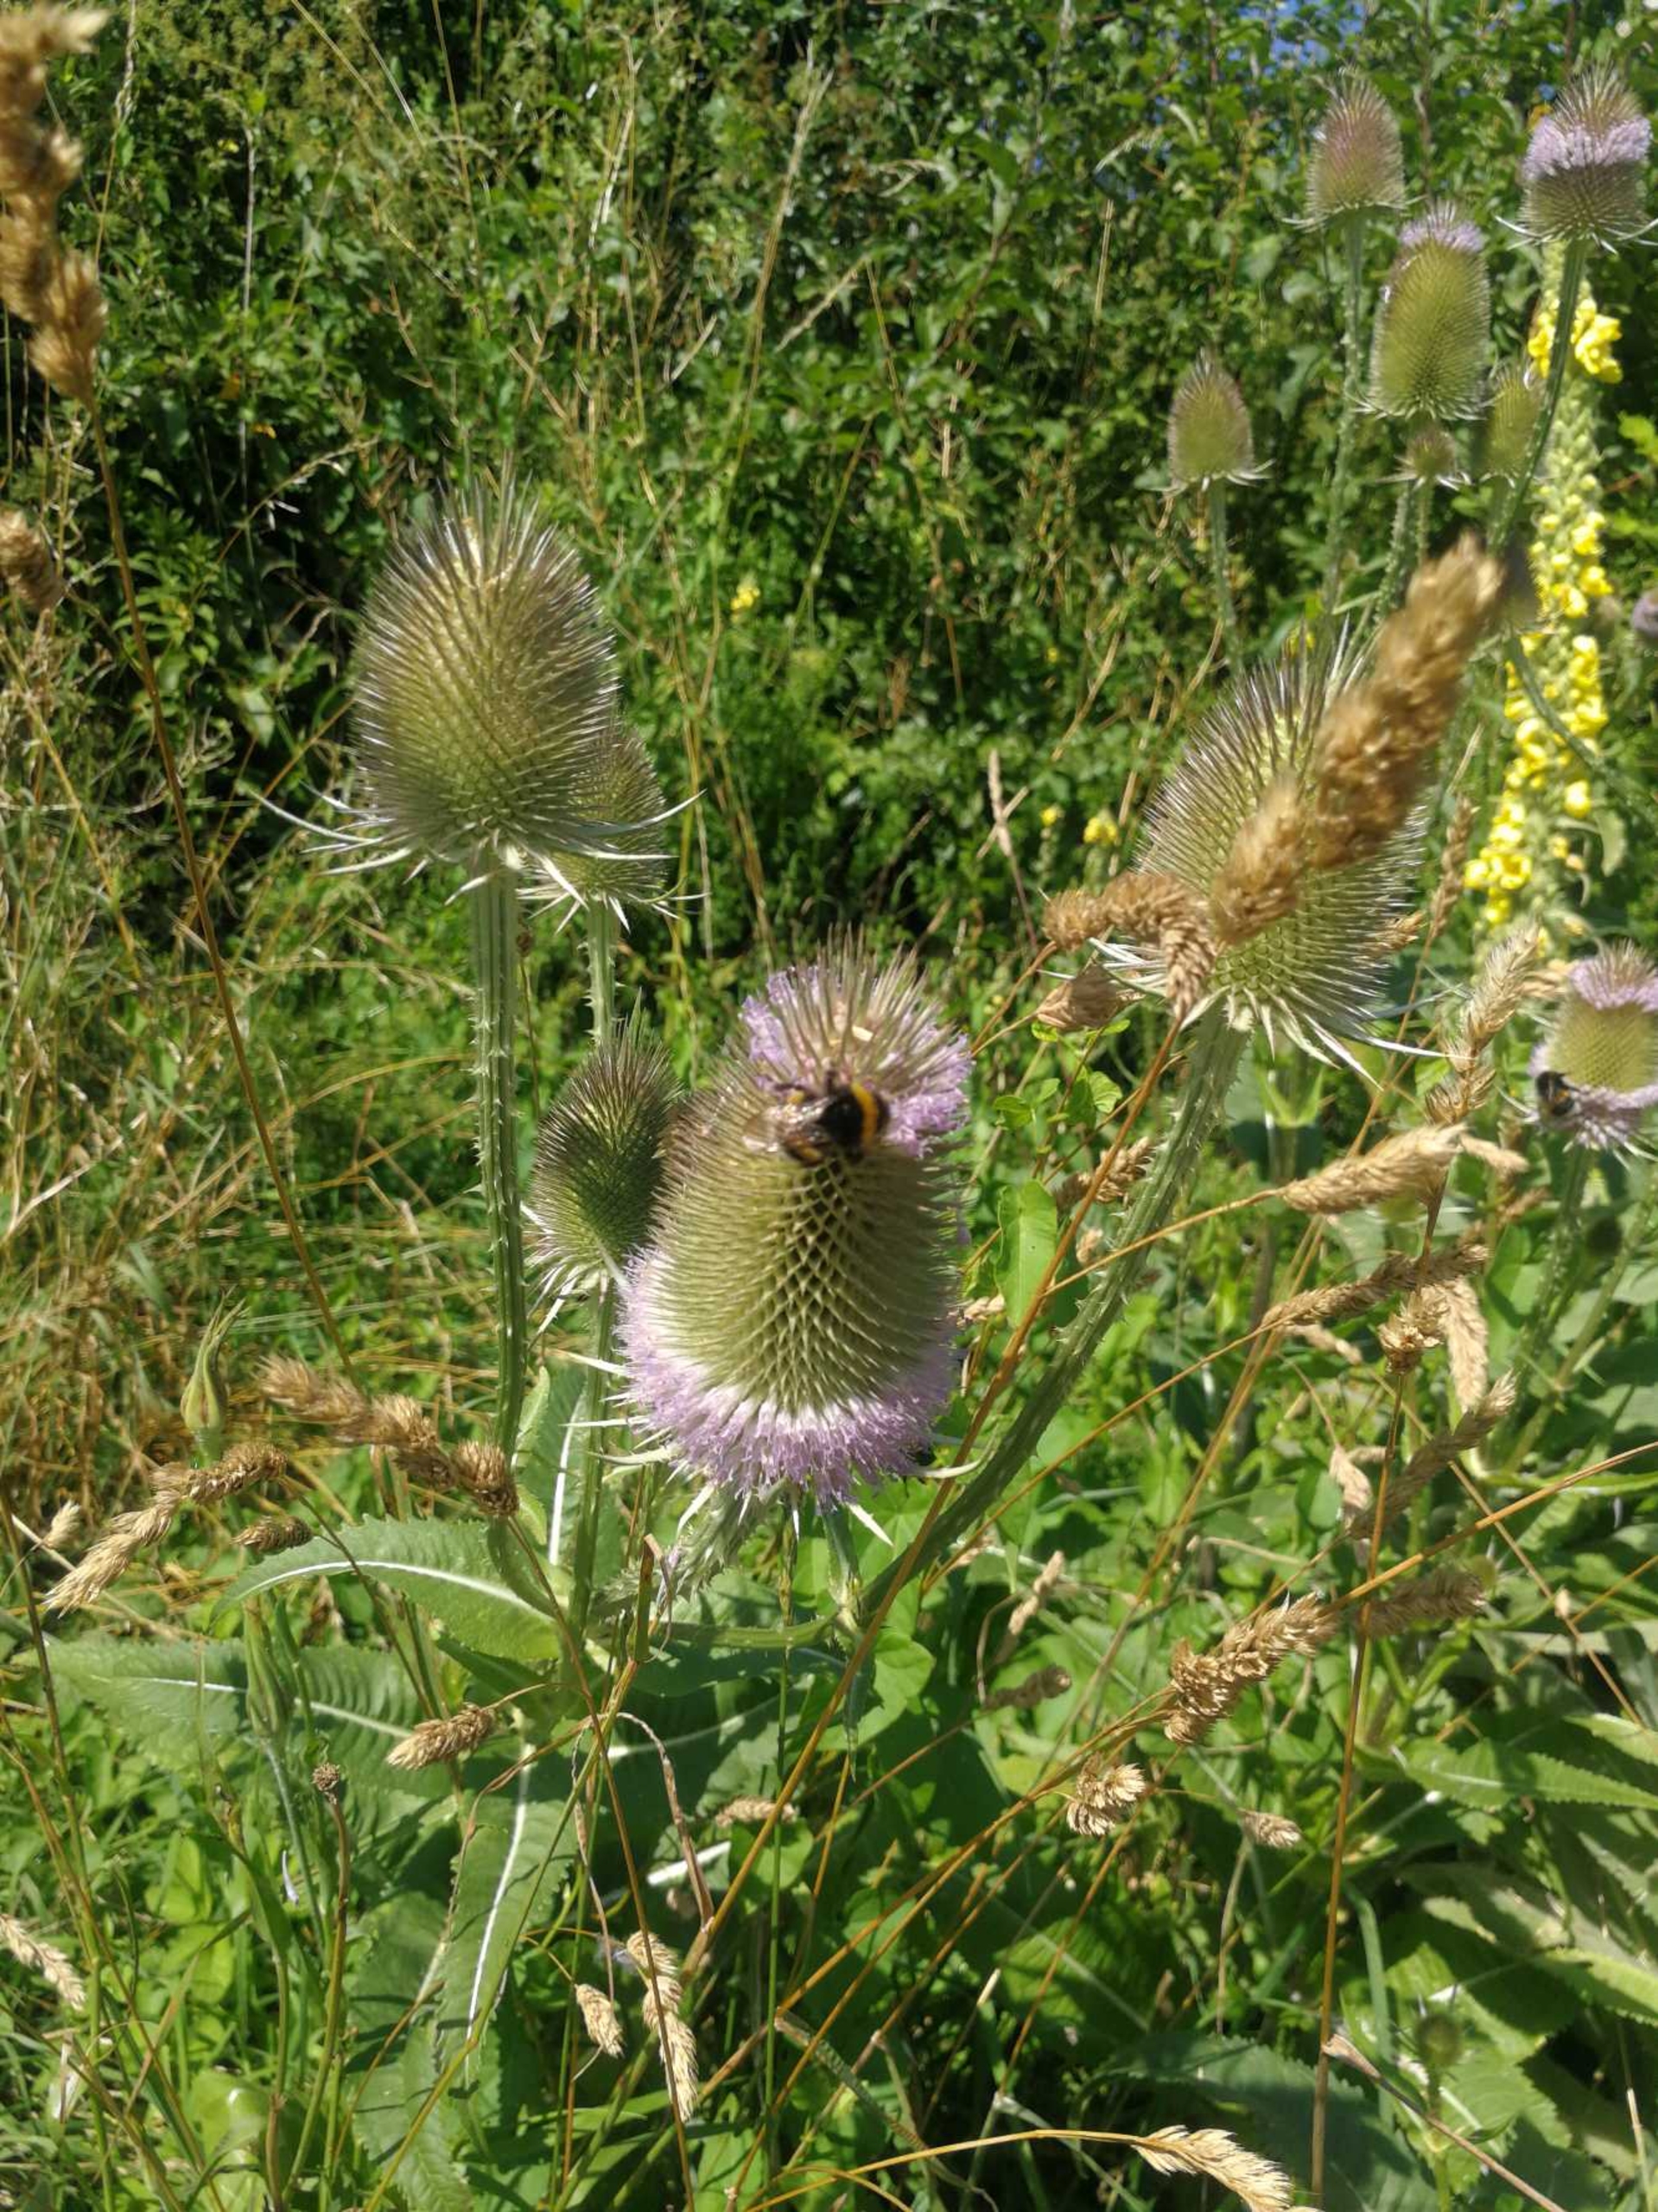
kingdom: Plantae
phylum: Tracheophyta
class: Magnoliopsida
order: Dipsacales
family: Caprifoliaceae
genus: Dipsacus
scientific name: Dipsacus fullonum
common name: Gærde-kartebolle
